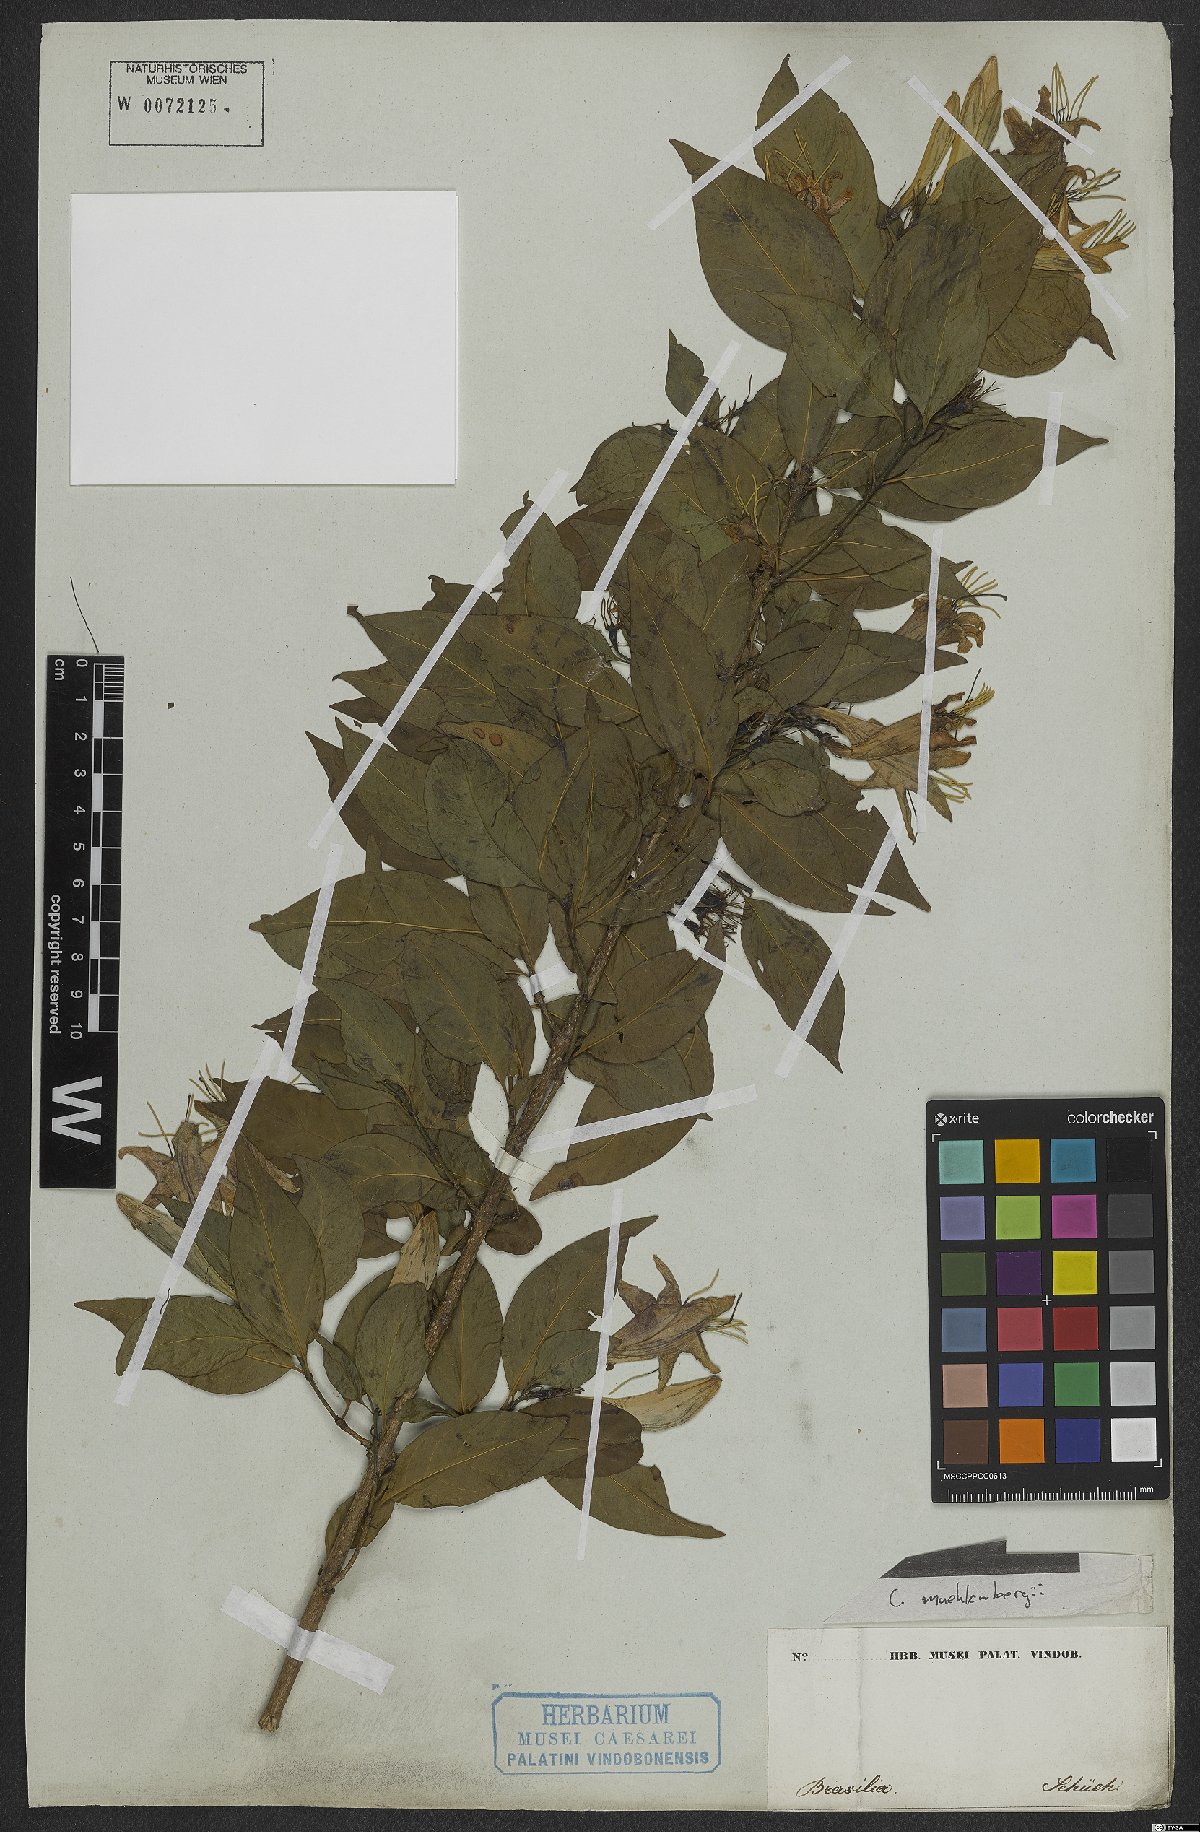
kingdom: Plantae
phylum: Tracheophyta
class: Magnoliopsida
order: Gentianales
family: Rubiaceae
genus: Coutarea
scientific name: Coutarea
